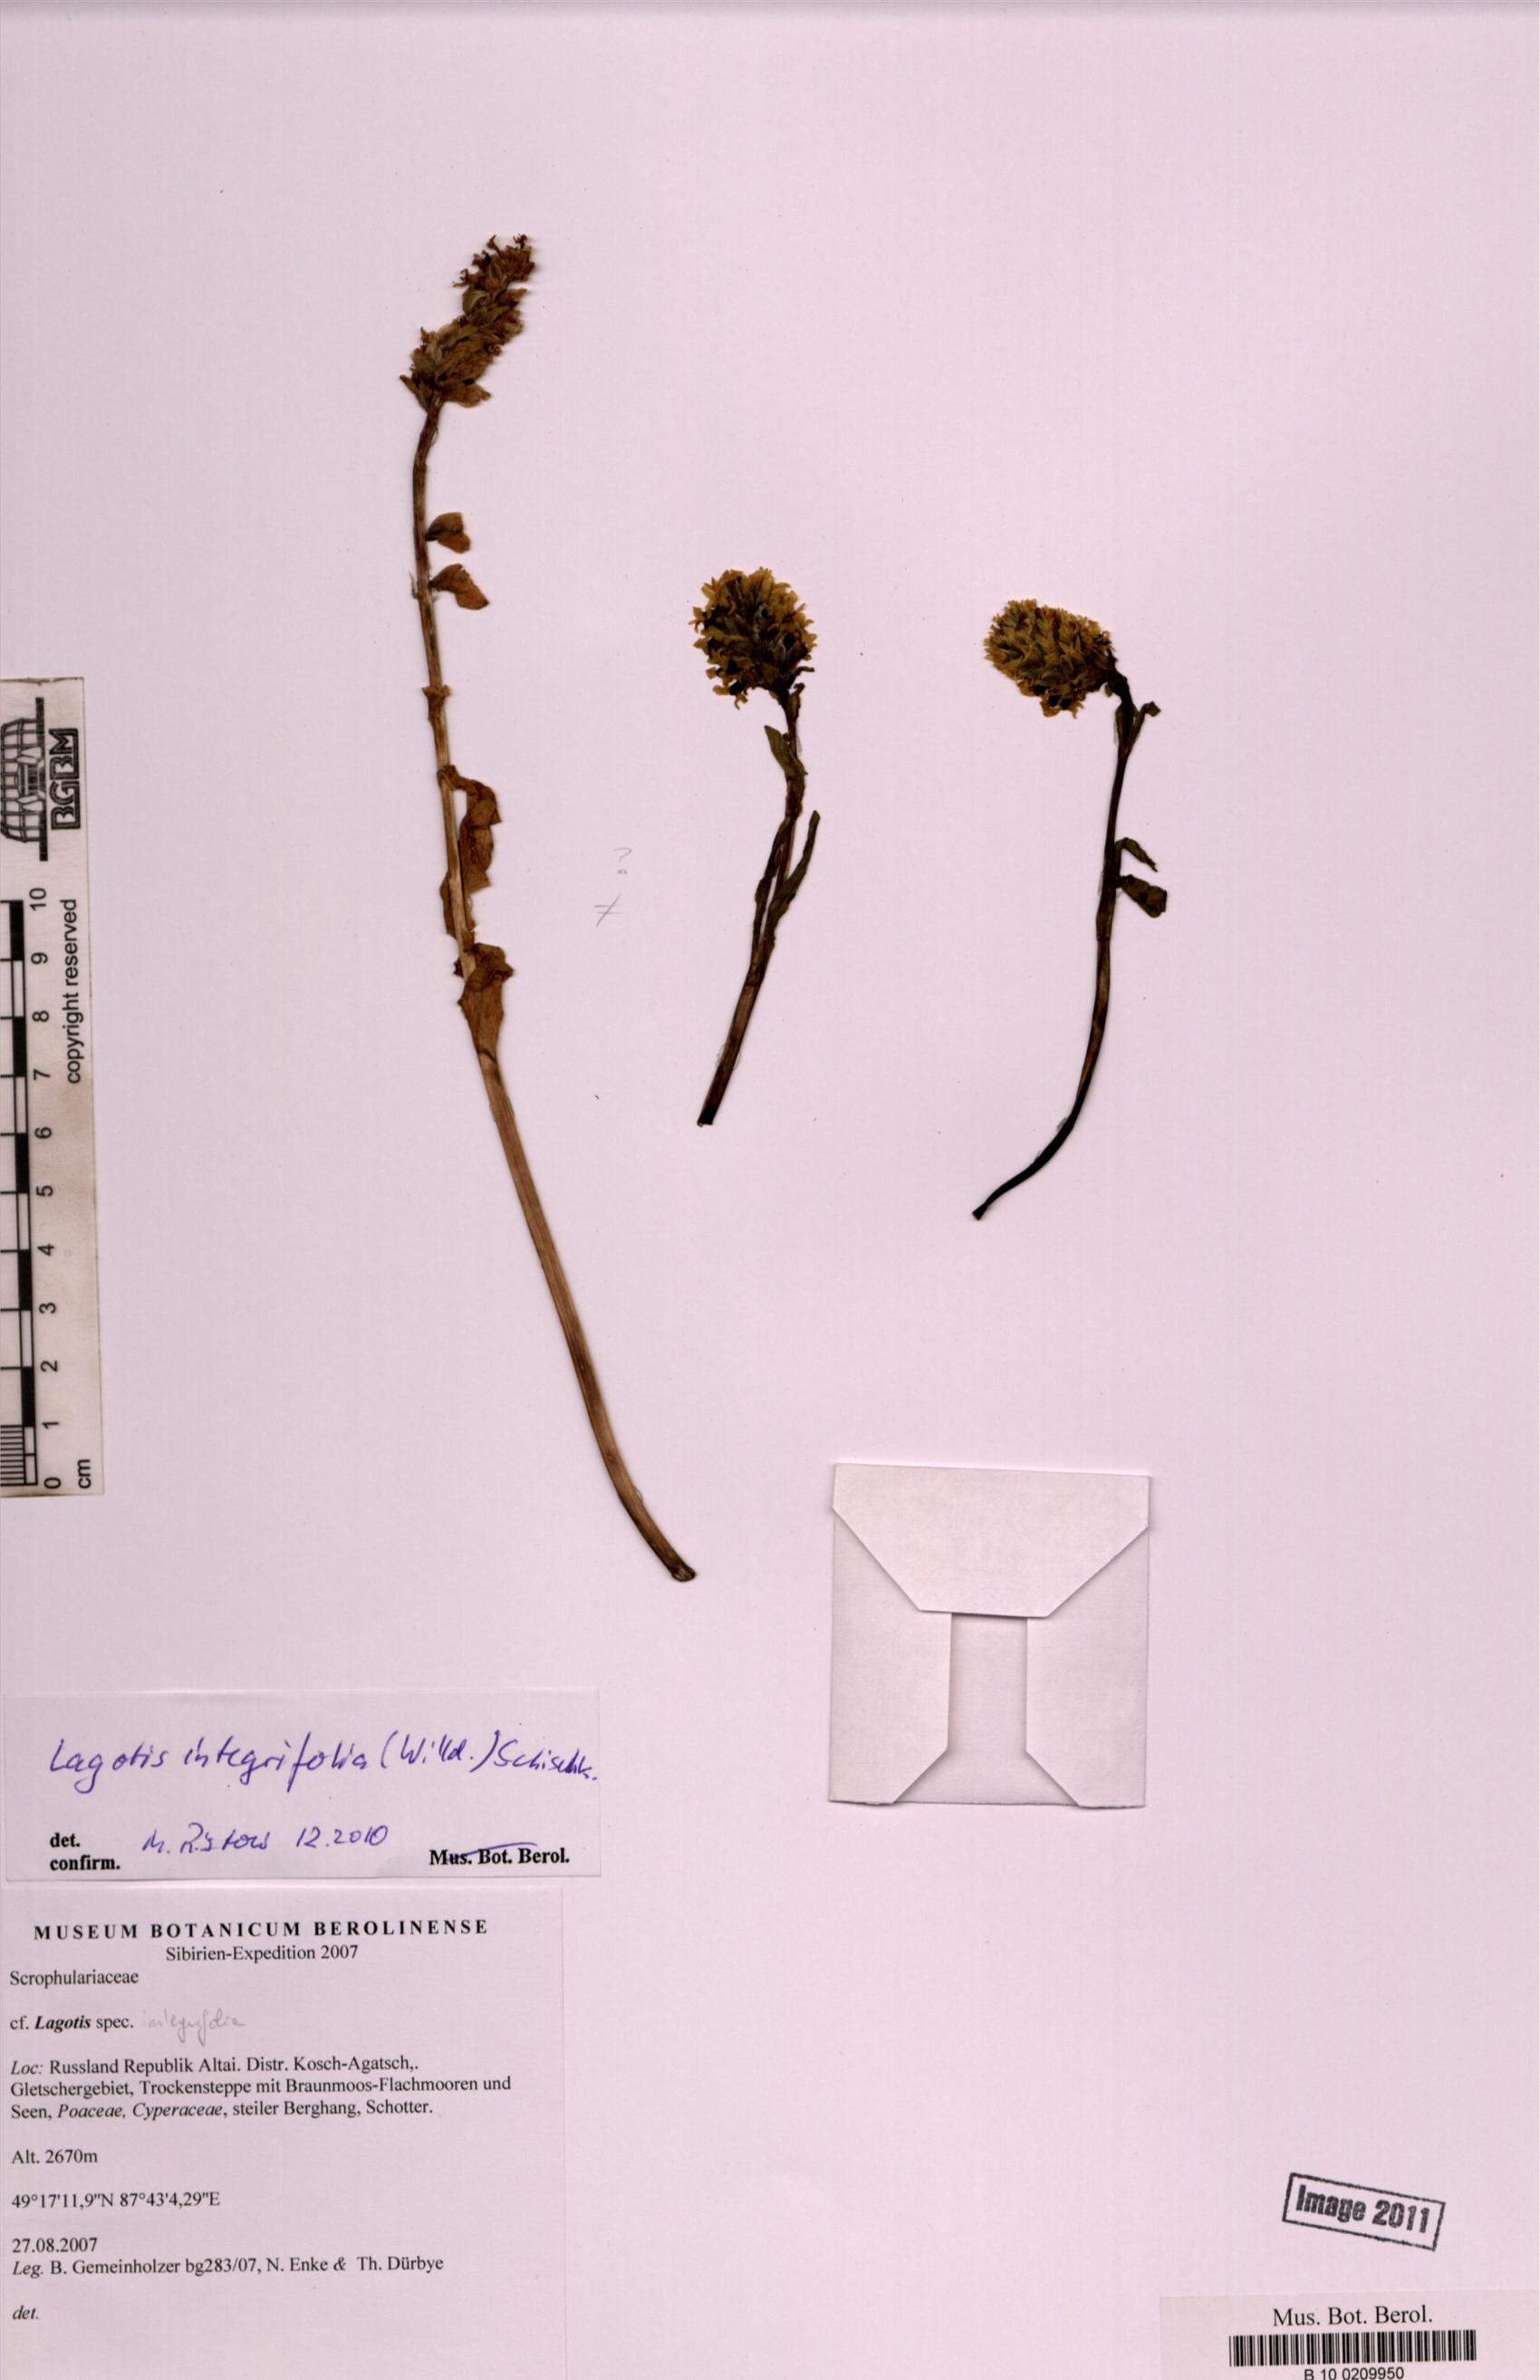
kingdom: Plantae
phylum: Tracheophyta
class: Magnoliopsida
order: Lamiales
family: Plantaginaceae
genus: Lagotis
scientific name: Lagotis integrifolia
